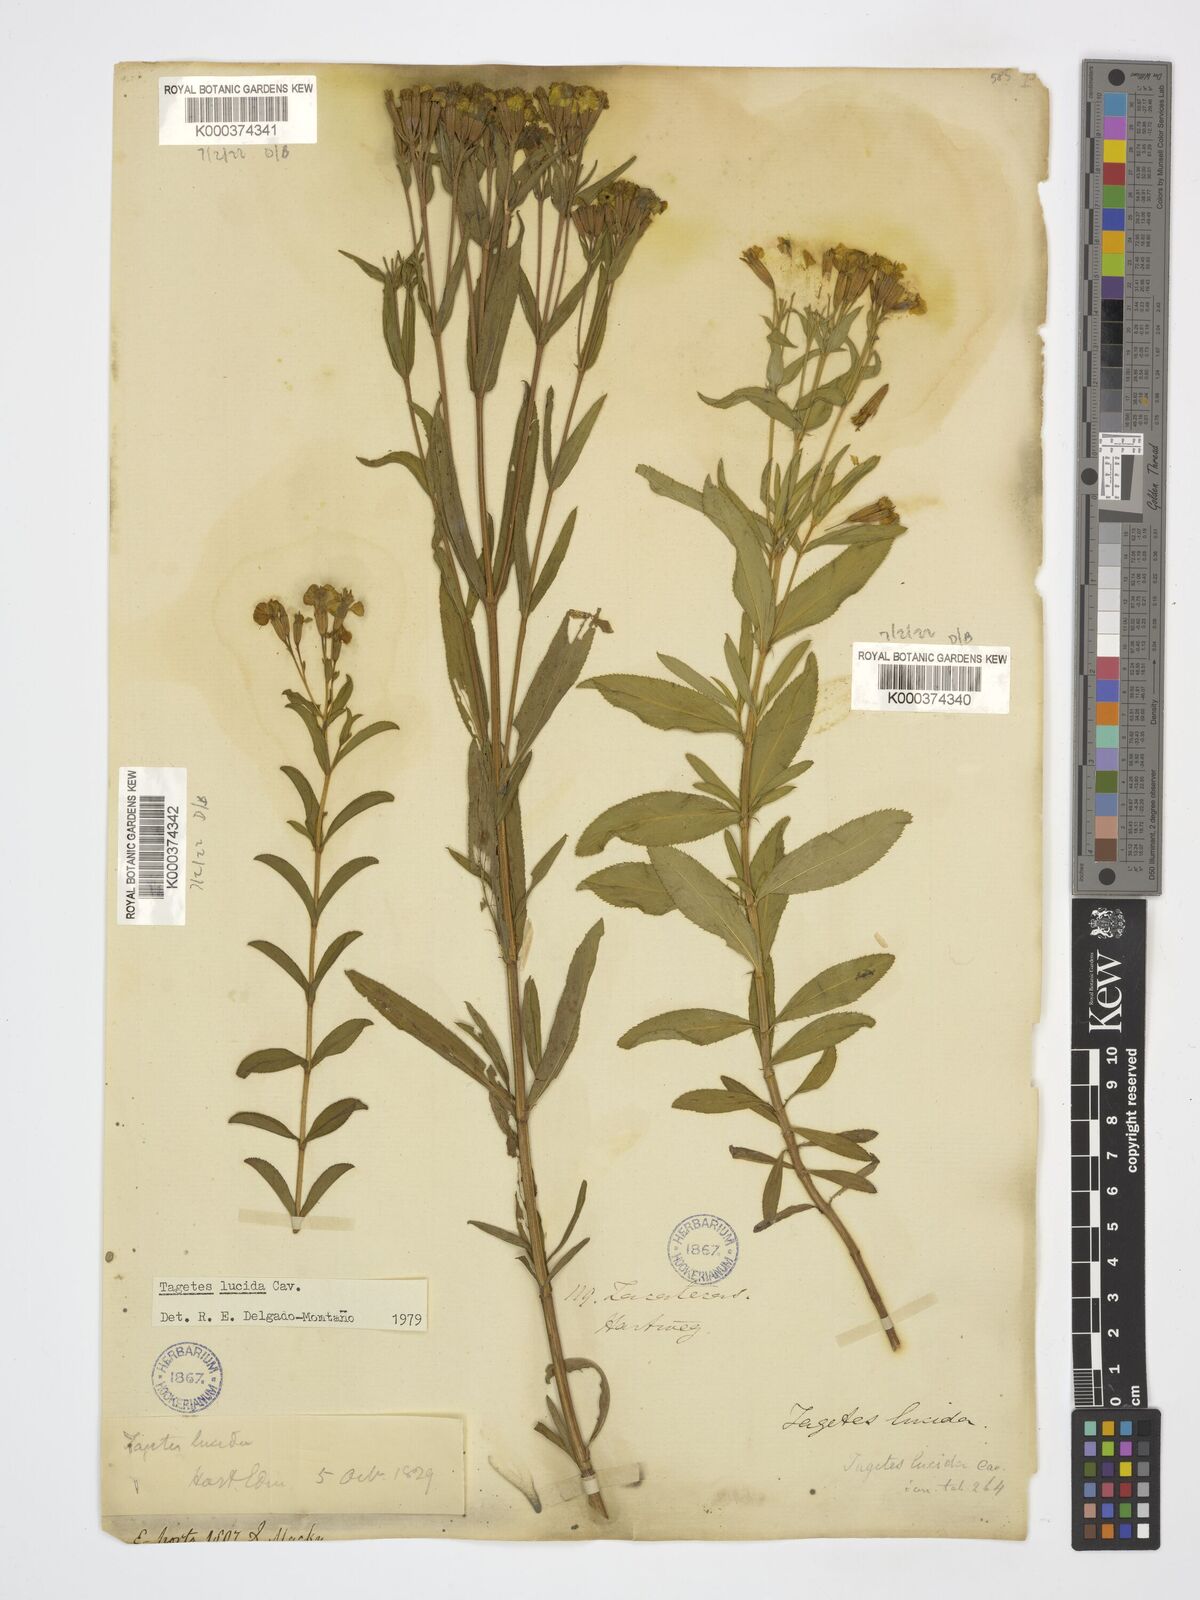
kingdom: Plantae
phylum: Tracheophyta
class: Magnoliopsida
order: Asterales
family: Asteraceae
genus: Tagetes
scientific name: Tagetes lucida
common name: Sweetscented marigold
